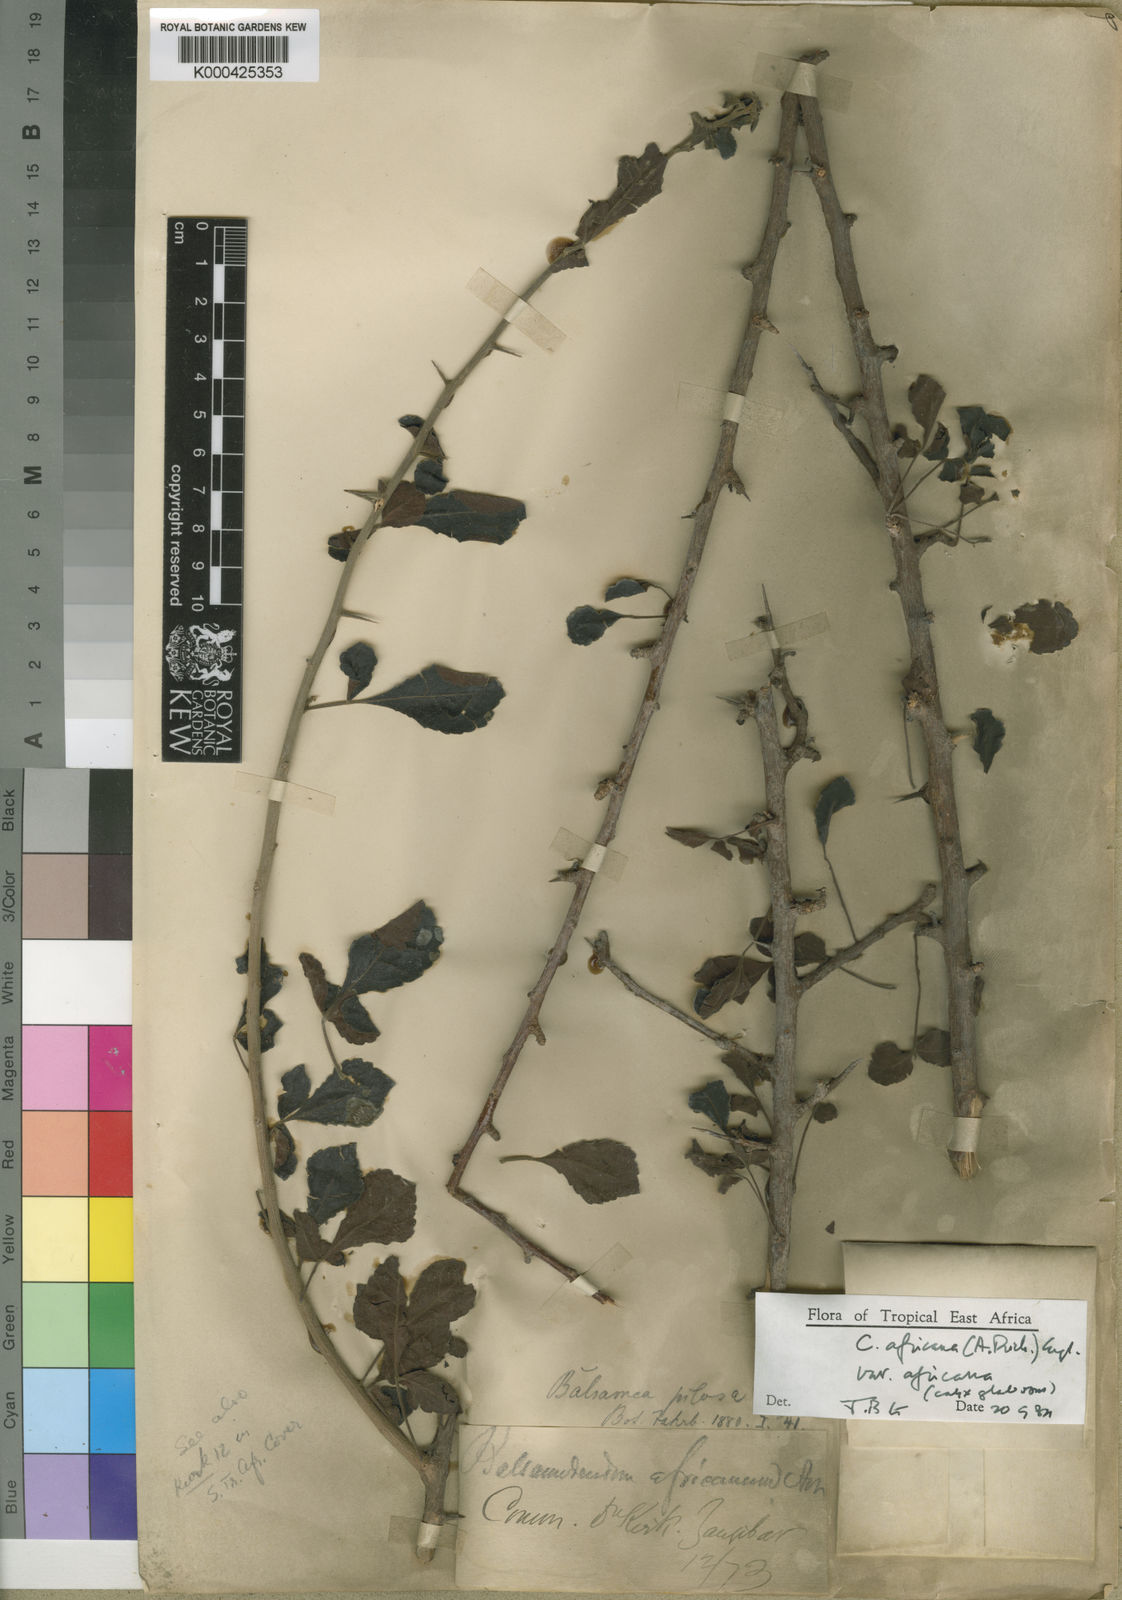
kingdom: Plantae
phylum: Tracheophyta
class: Magnoliopsida
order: Sapindales
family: Burseraceae
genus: Commiphora
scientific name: Commiphora africana
